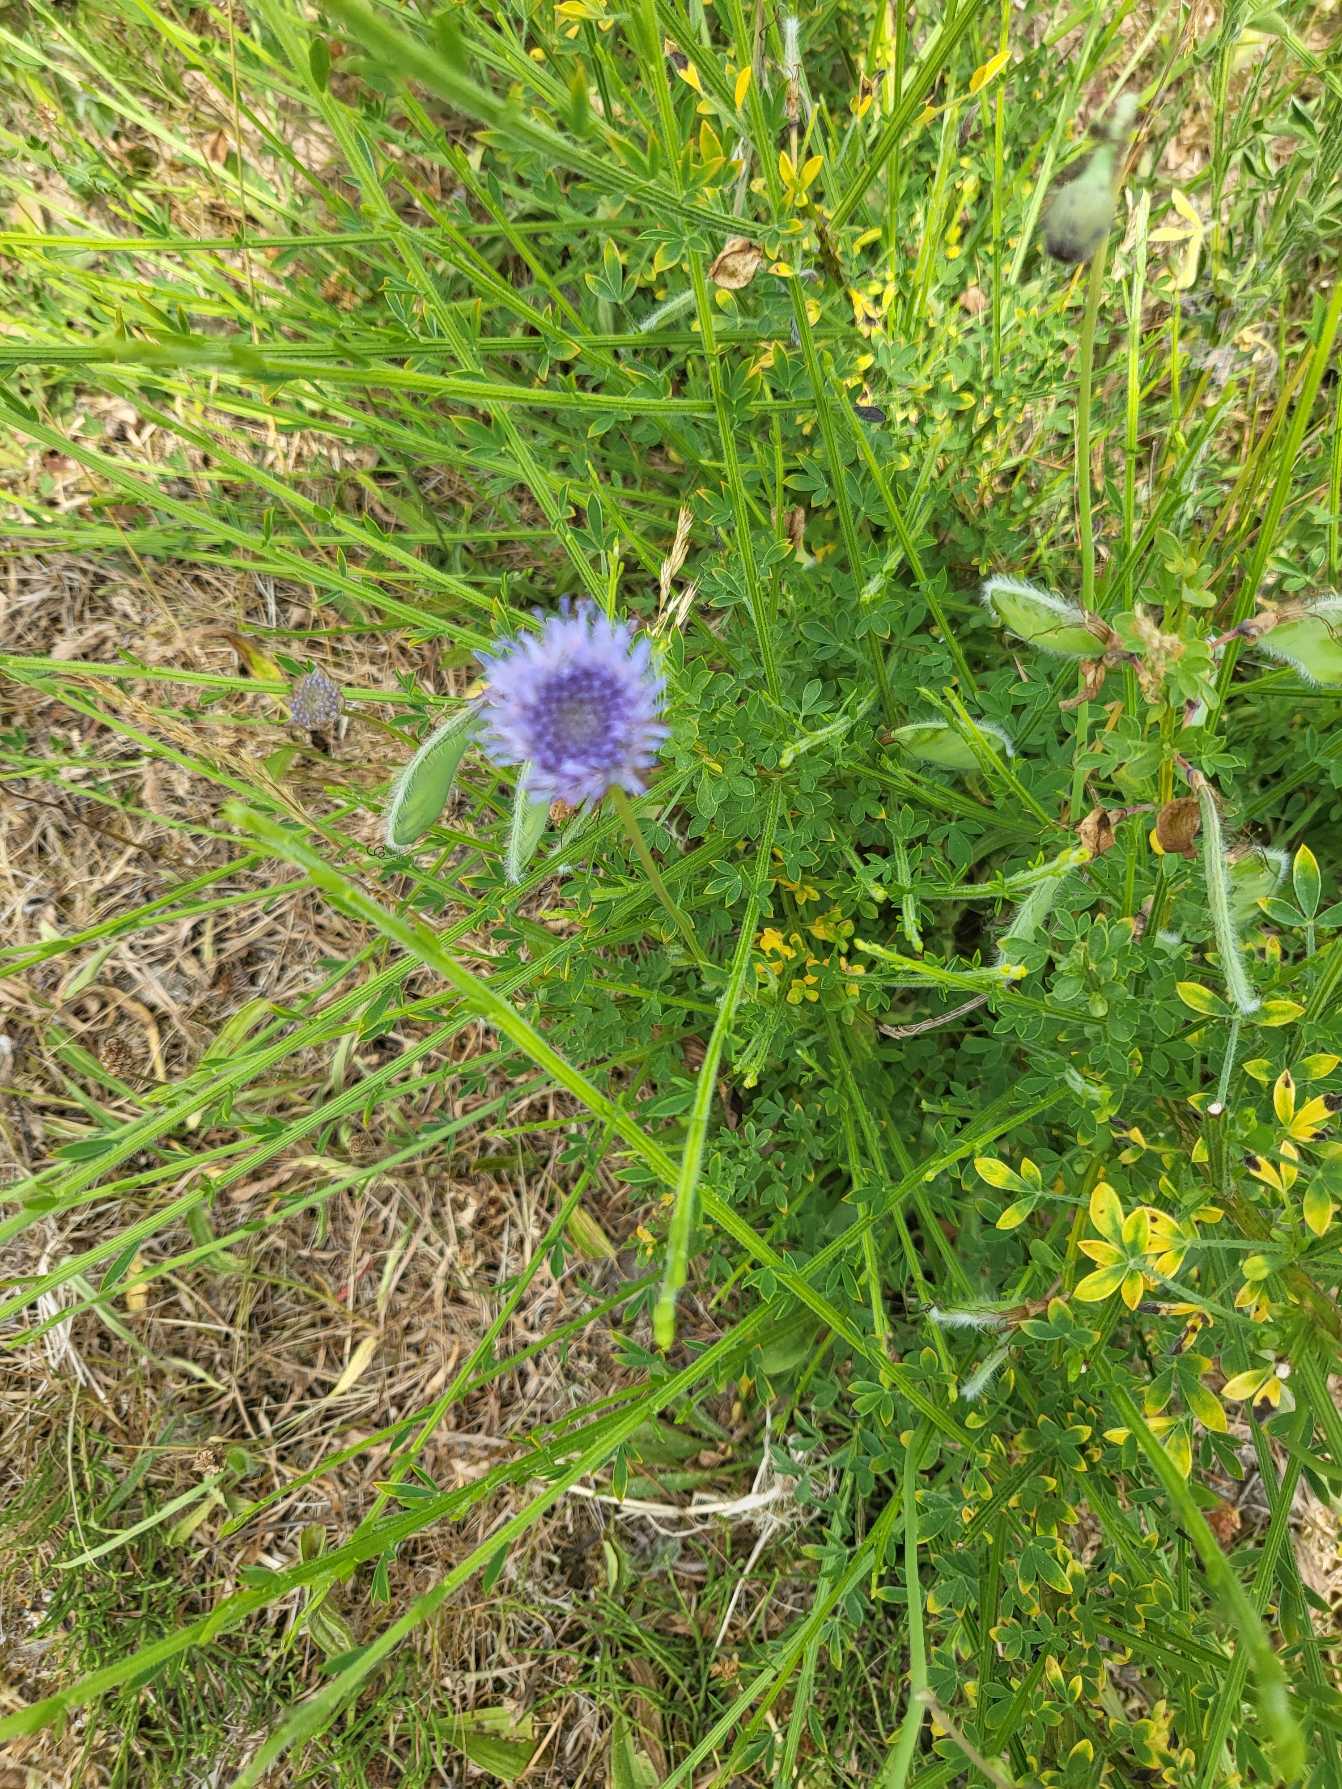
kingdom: Plantae
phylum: Tracheophyta
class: Magnoliopsida
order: Asterales
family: Campanulaceae
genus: Jasione
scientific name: Jasione montana
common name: Blåmunke
